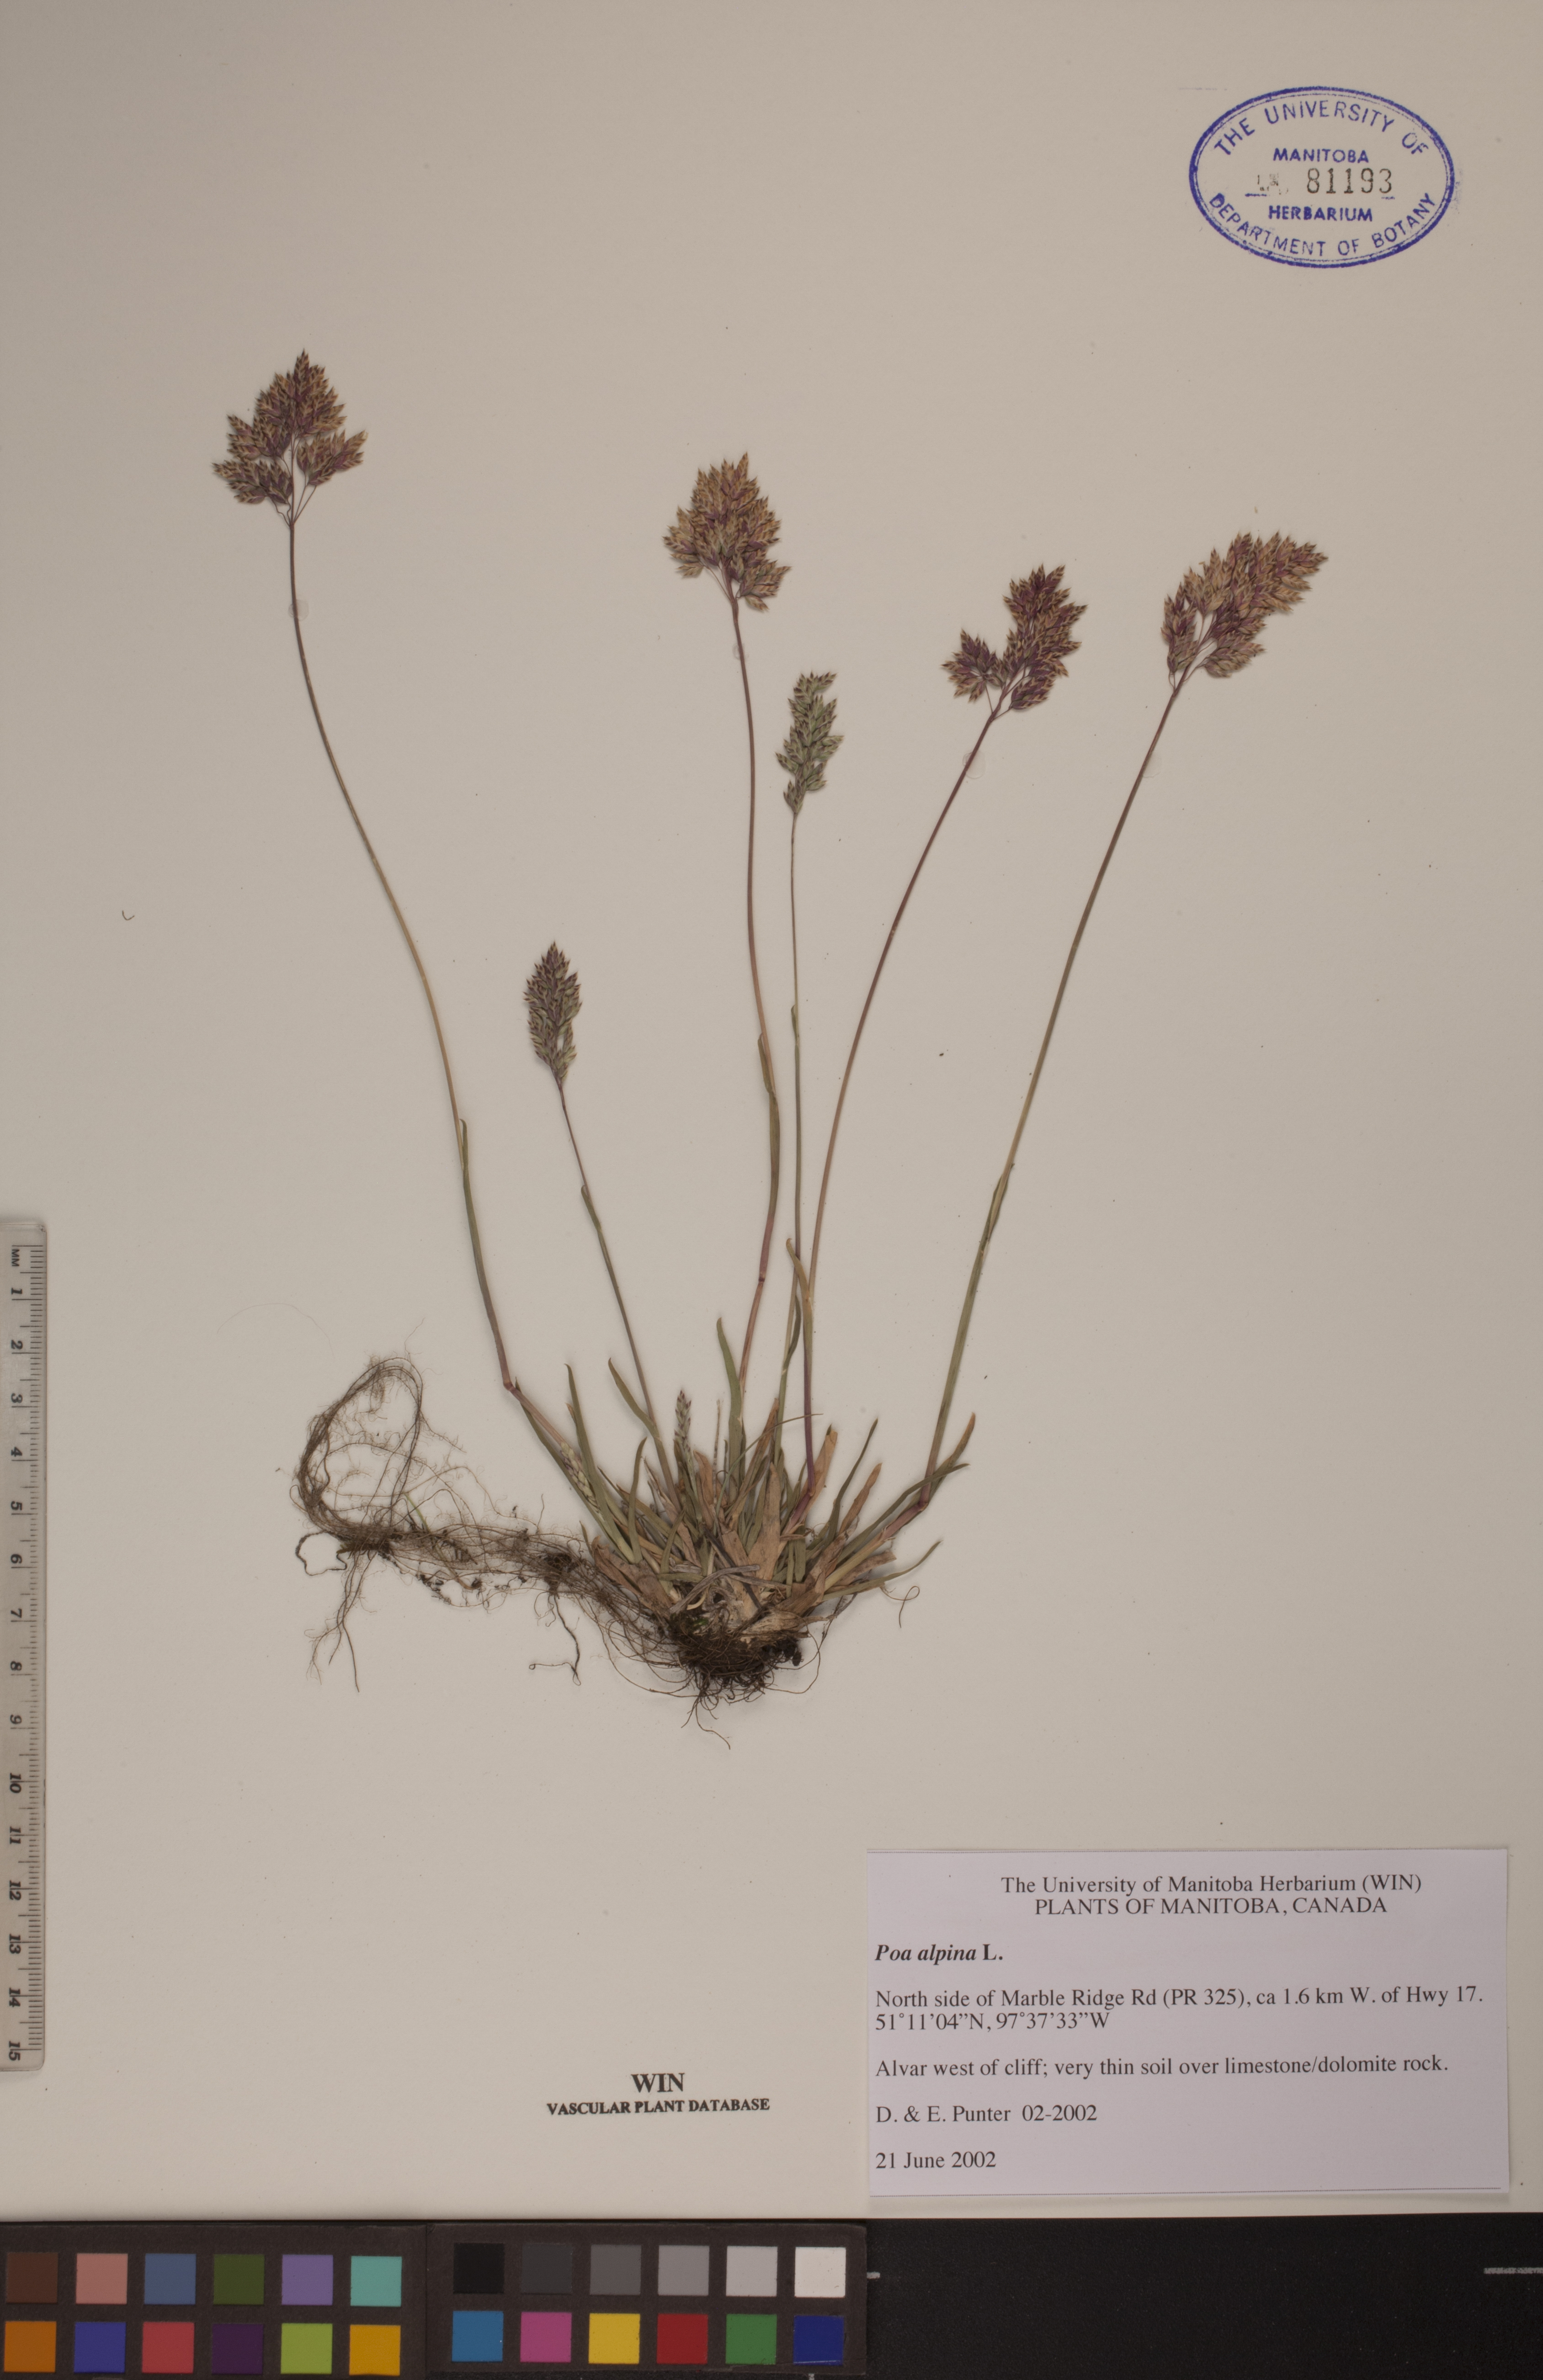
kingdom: Plantae
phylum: Tracheophyta
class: Liliopsida
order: Poales
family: Poaceae
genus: Poa
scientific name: Poa alpina
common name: Alpine bluegrass
